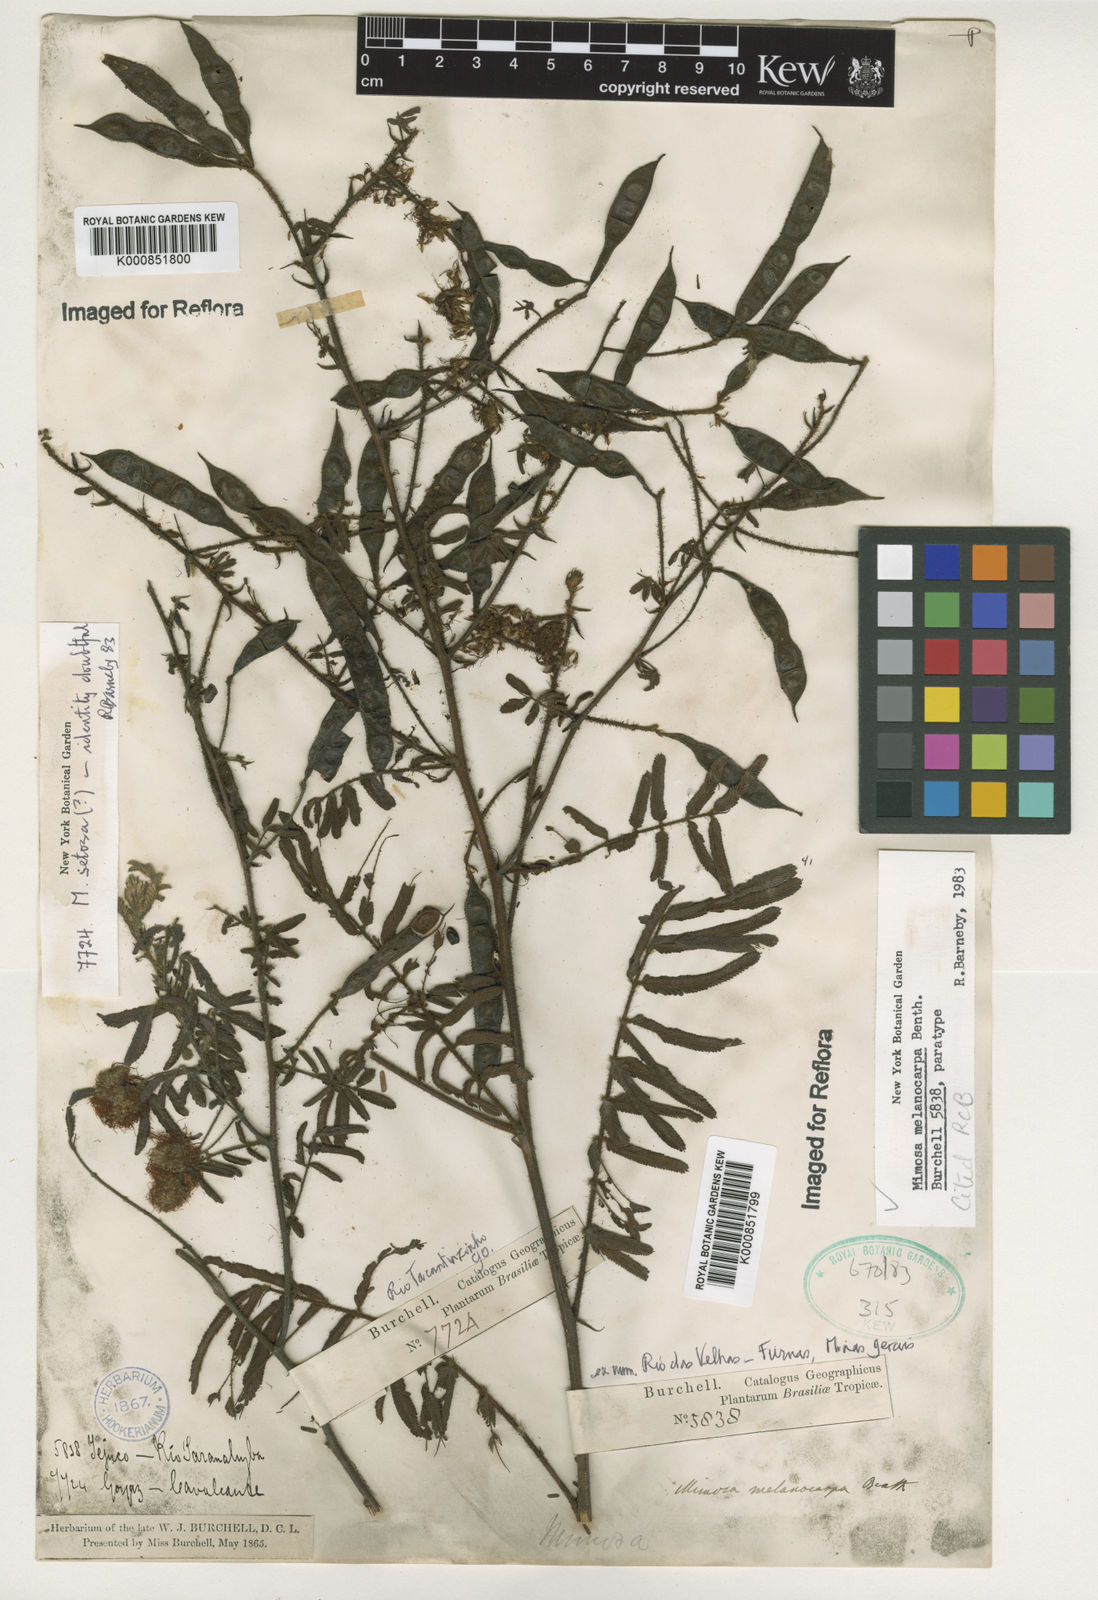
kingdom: Plantae
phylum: Tracheophyta
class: Magnoliopsida
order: Fabales
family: Fabaceae
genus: Mimosa
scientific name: Mimosa melanocarpa
